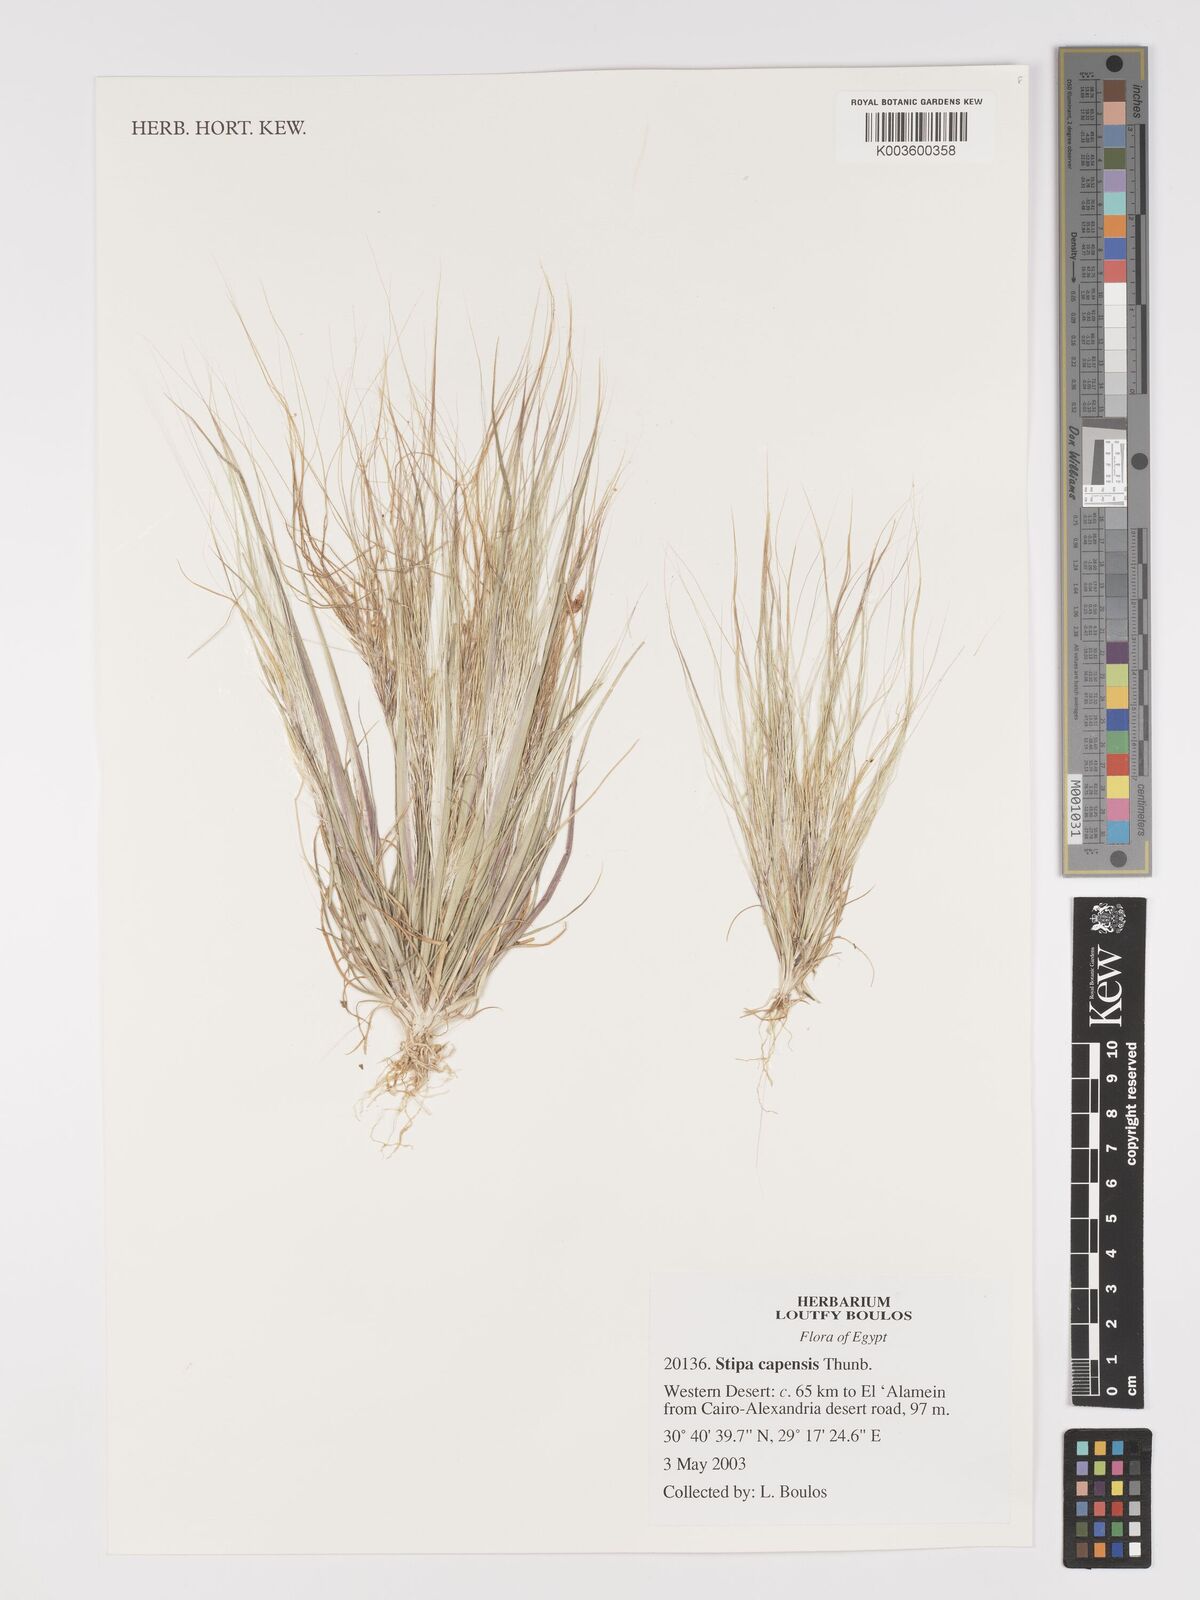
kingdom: Plantae
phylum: Tracheophyta
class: Liliopsida
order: Poales
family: Poaceae
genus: Stipellula
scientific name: Stipellula capensis
